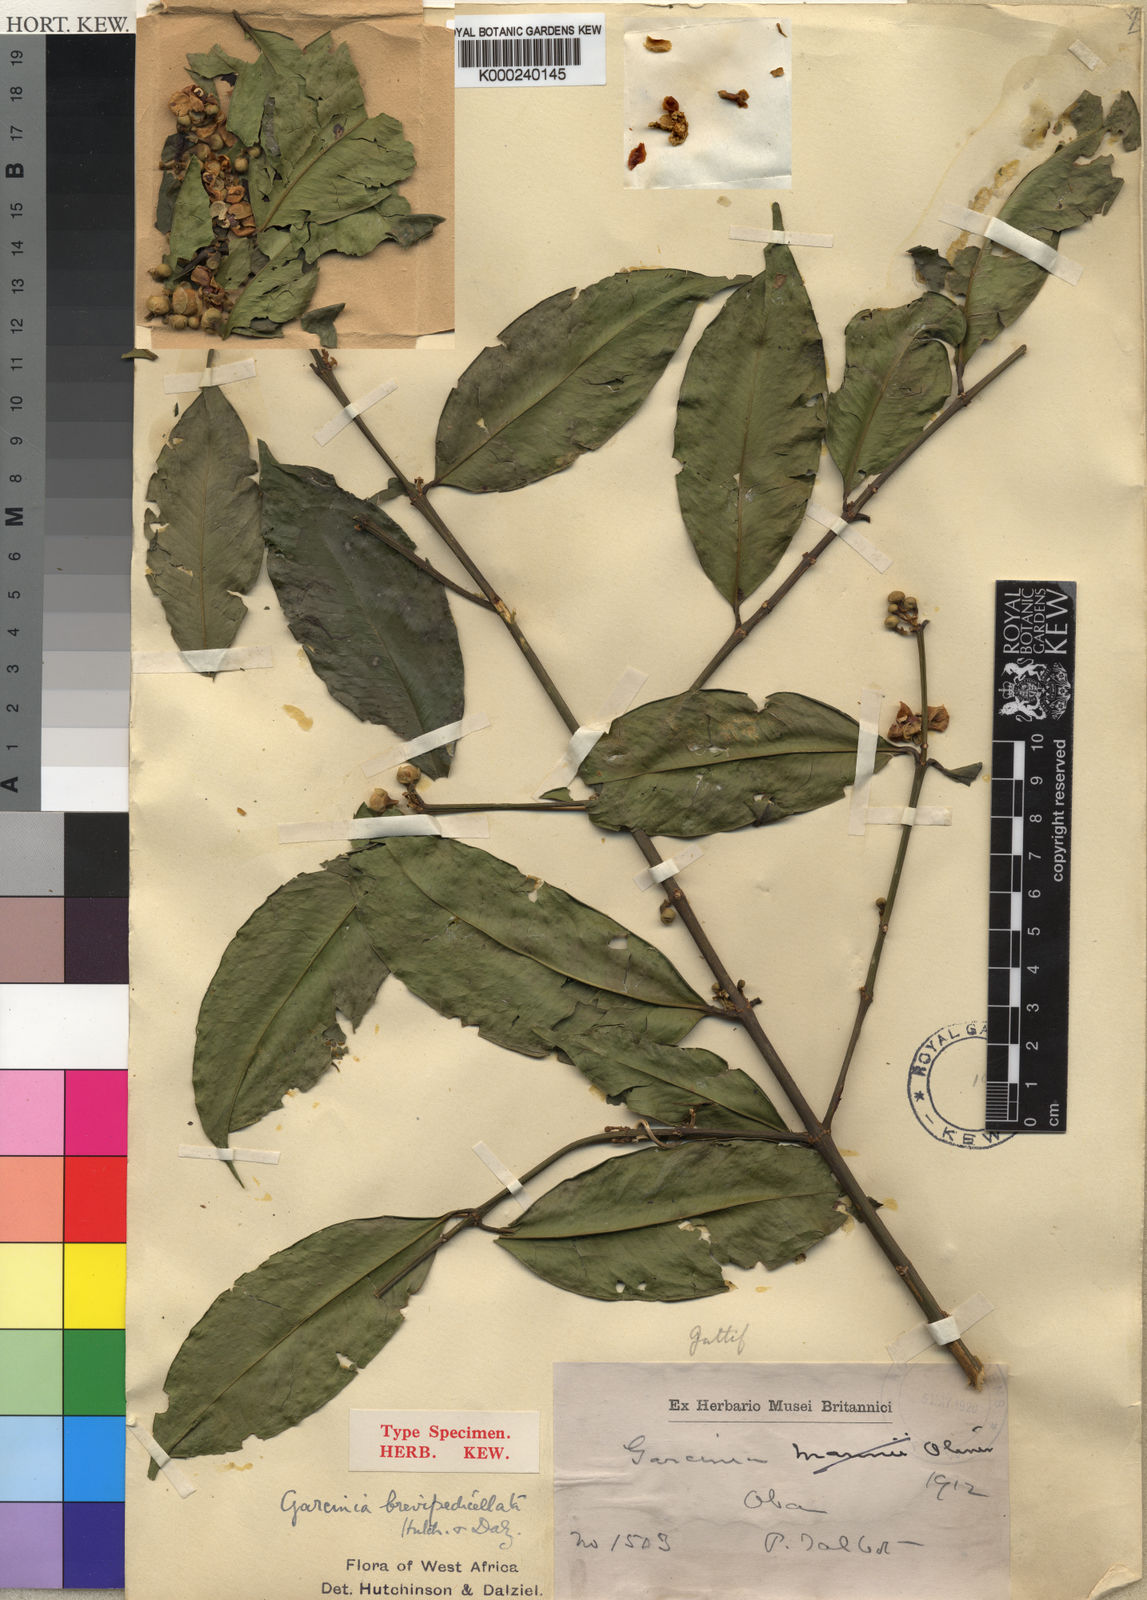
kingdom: Plantae
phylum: Tracheophyta
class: Magnoliopsida
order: Malpighiales
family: Clusiaceae
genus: Garcinia
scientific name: Garcinia afzelii
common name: Bitter-kola
